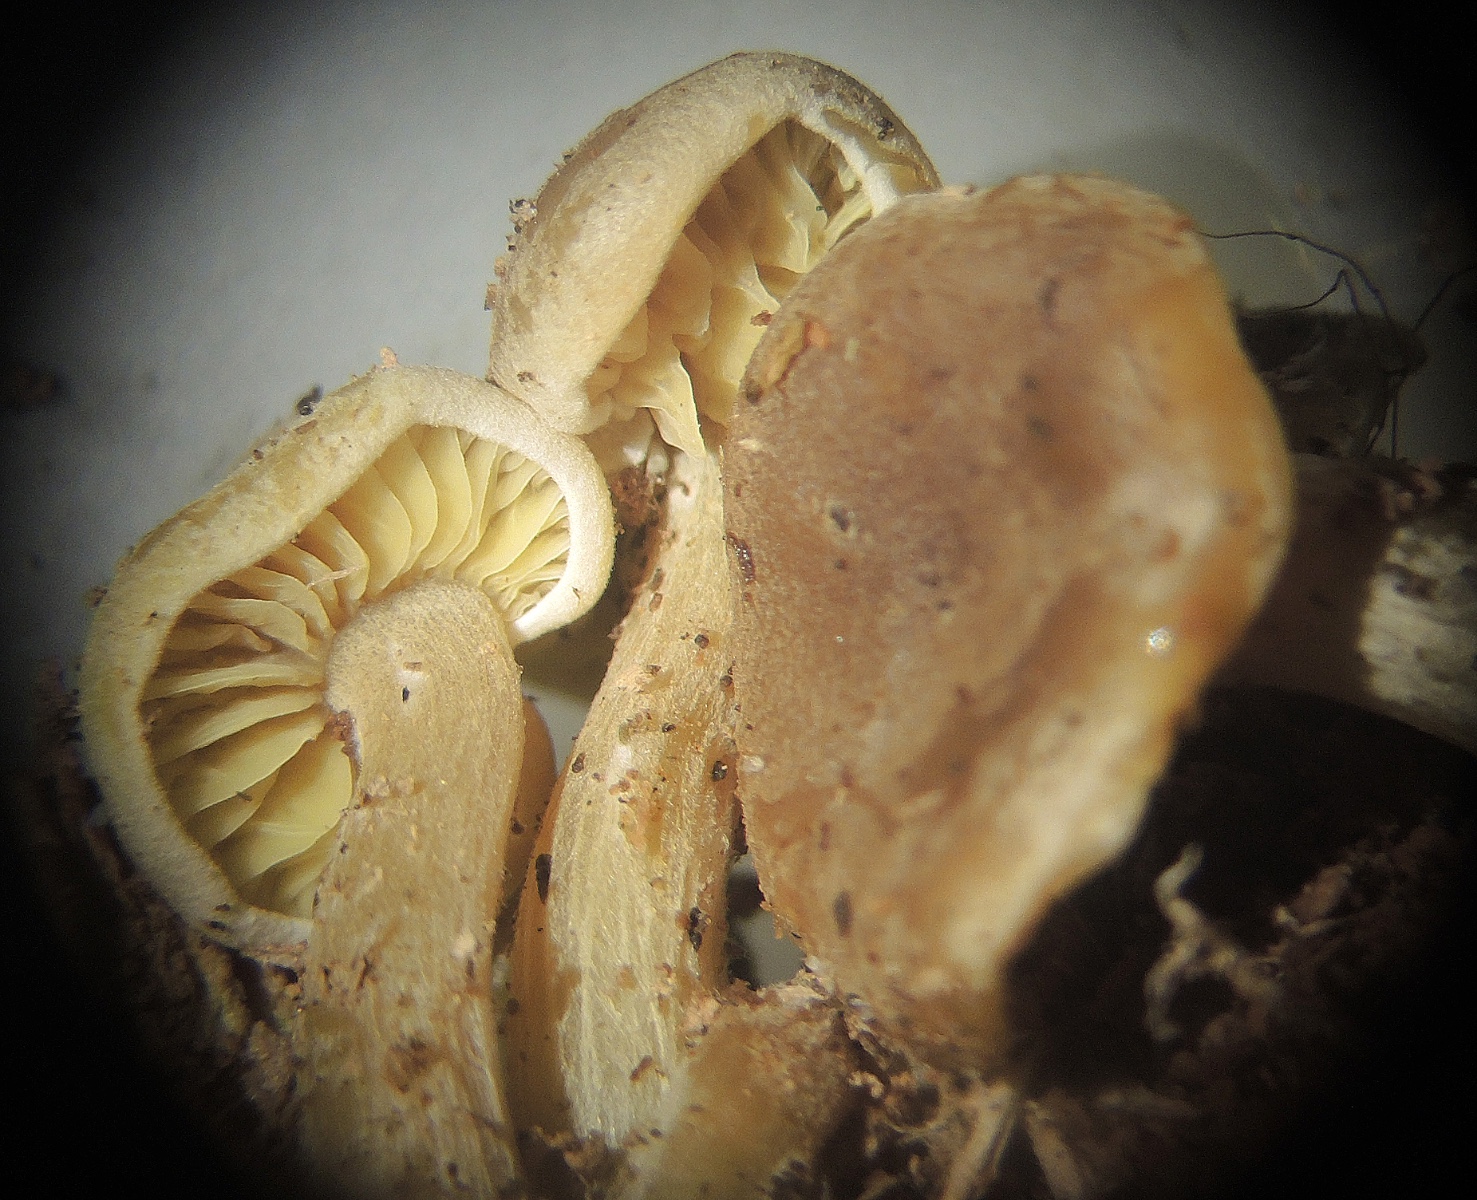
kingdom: Fungi
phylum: Basidiomycota
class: Agaricomycetes
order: Agaricales
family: Callistosporiaceae
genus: Callistosporium
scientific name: Callistosporium pinicola
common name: småsporet ravhat
